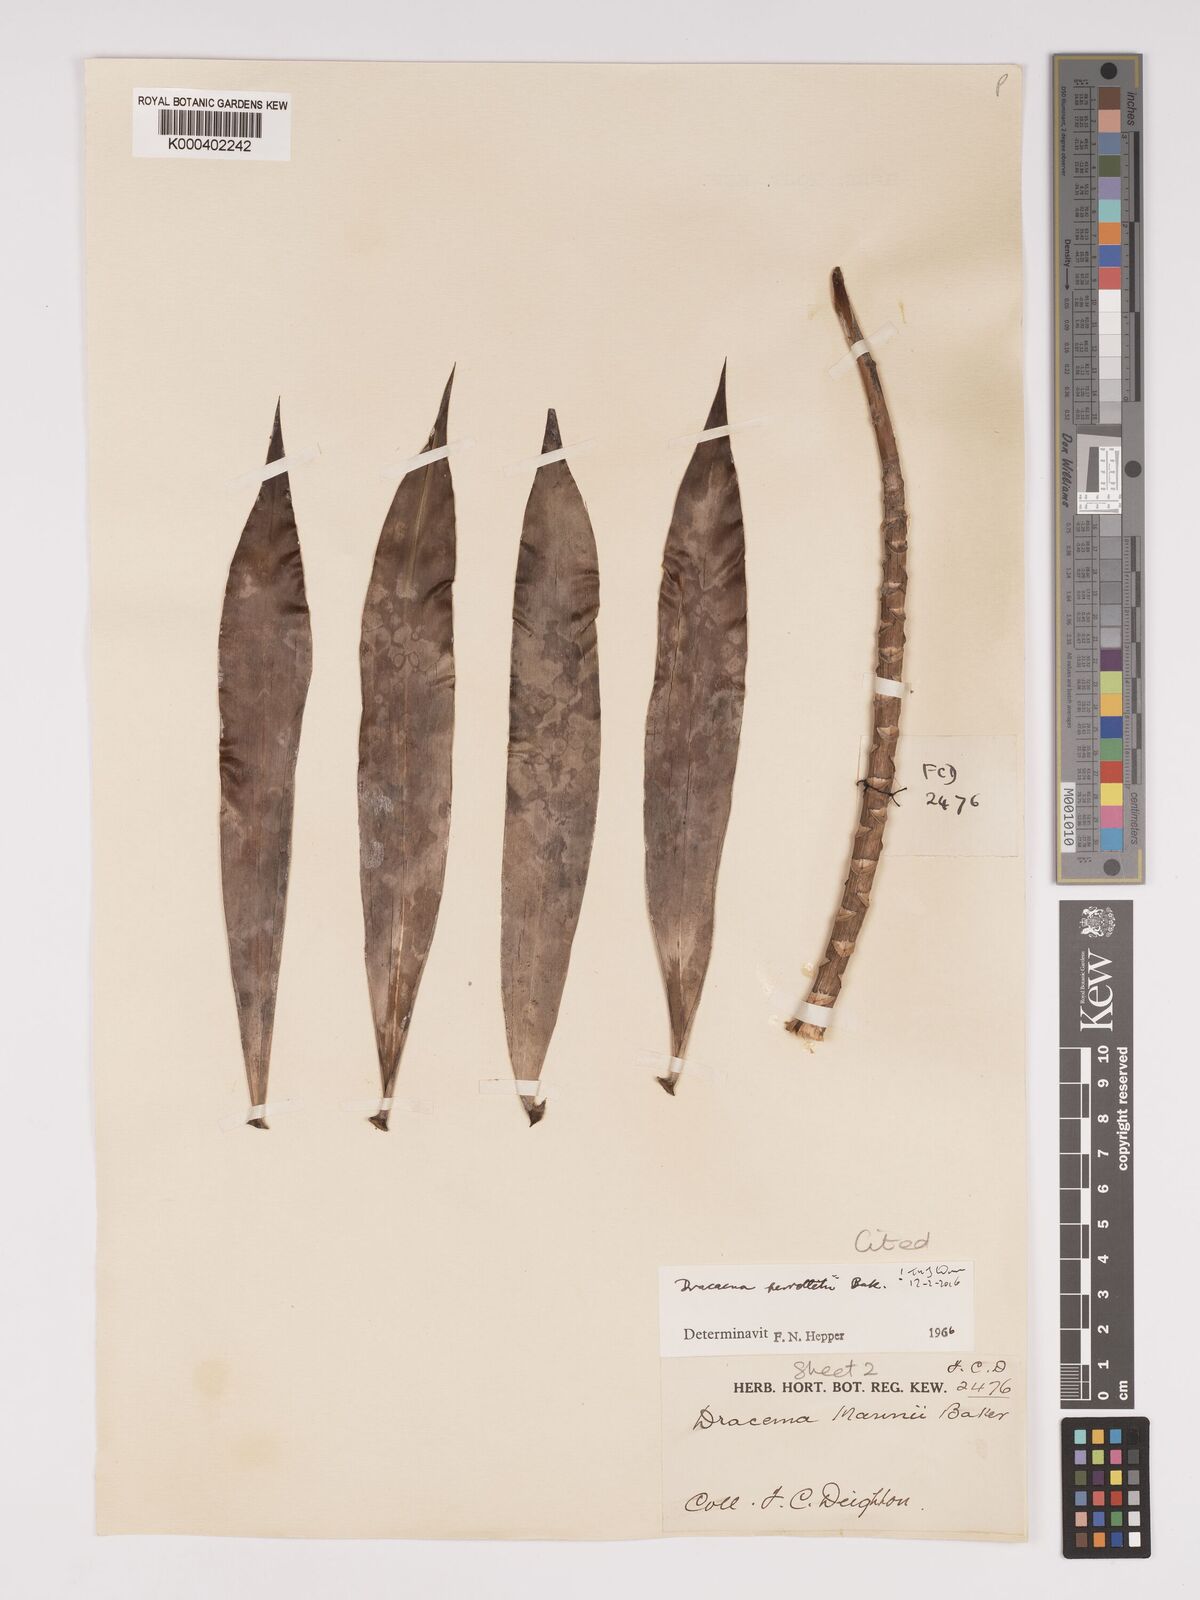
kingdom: Plantae
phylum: Tracheophyta
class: Liliopsida
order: Asparagales
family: Asparagaceae
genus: Dracaena
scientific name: Dracaena perrottetii
